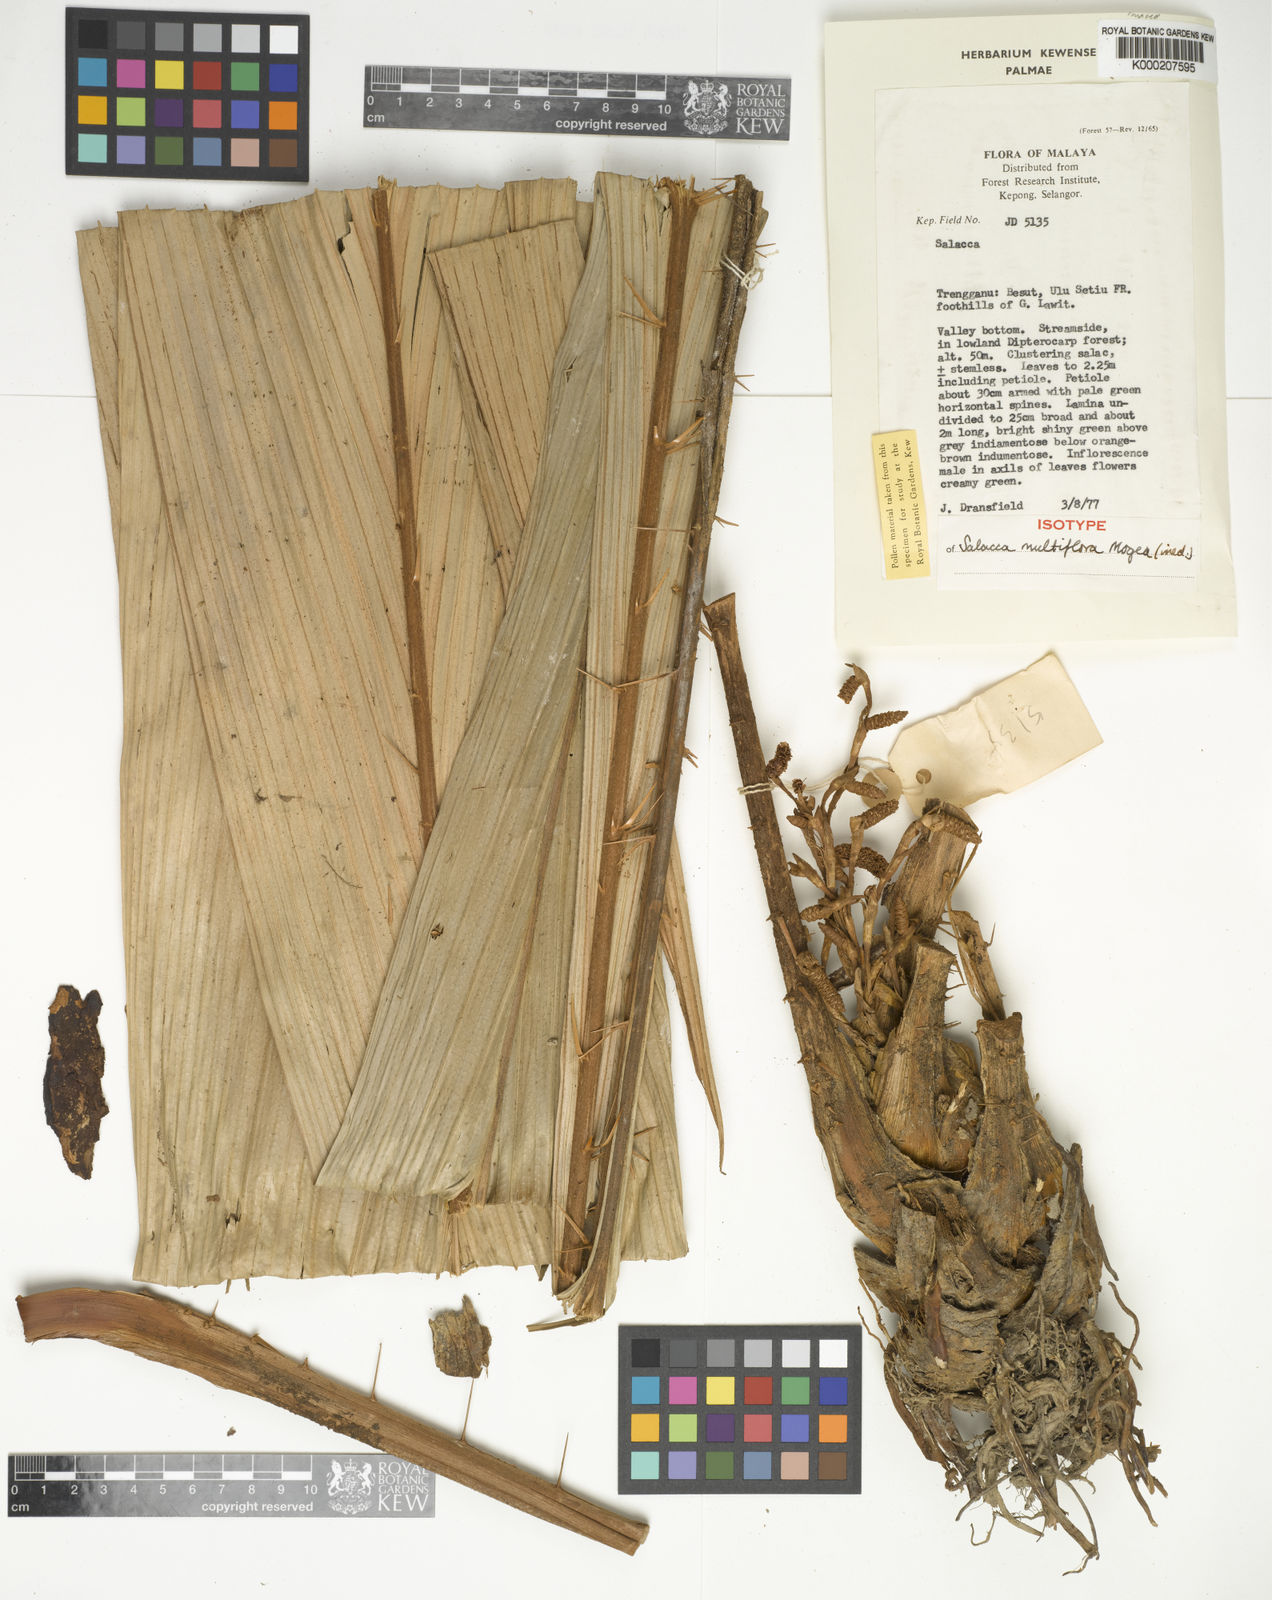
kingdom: Plantae
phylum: Tracheophyta
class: Liliopsida
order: Arecales
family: Arecaceae
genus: Salacca
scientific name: Salacca multiflora
